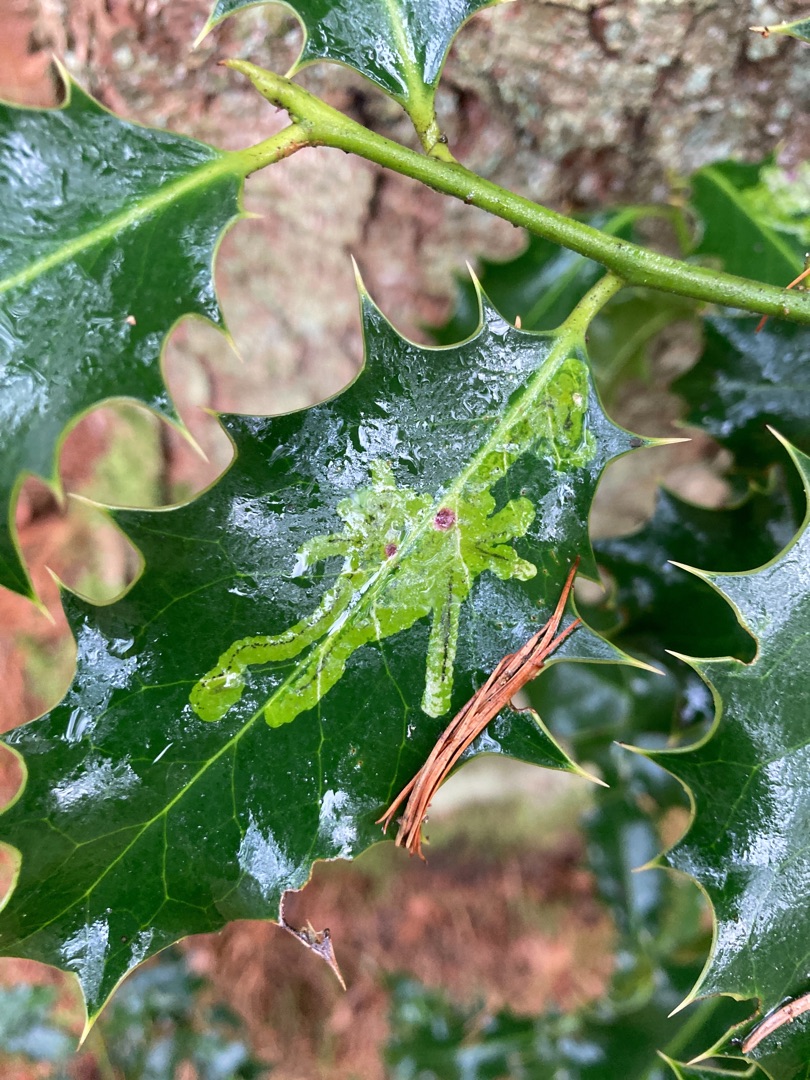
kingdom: Animalia
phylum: Arthropoda
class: Insecta
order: Diptera
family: Agromyzidae
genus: Phytomyza
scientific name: Phytomyza ilicis
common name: Kristtornminérflue
